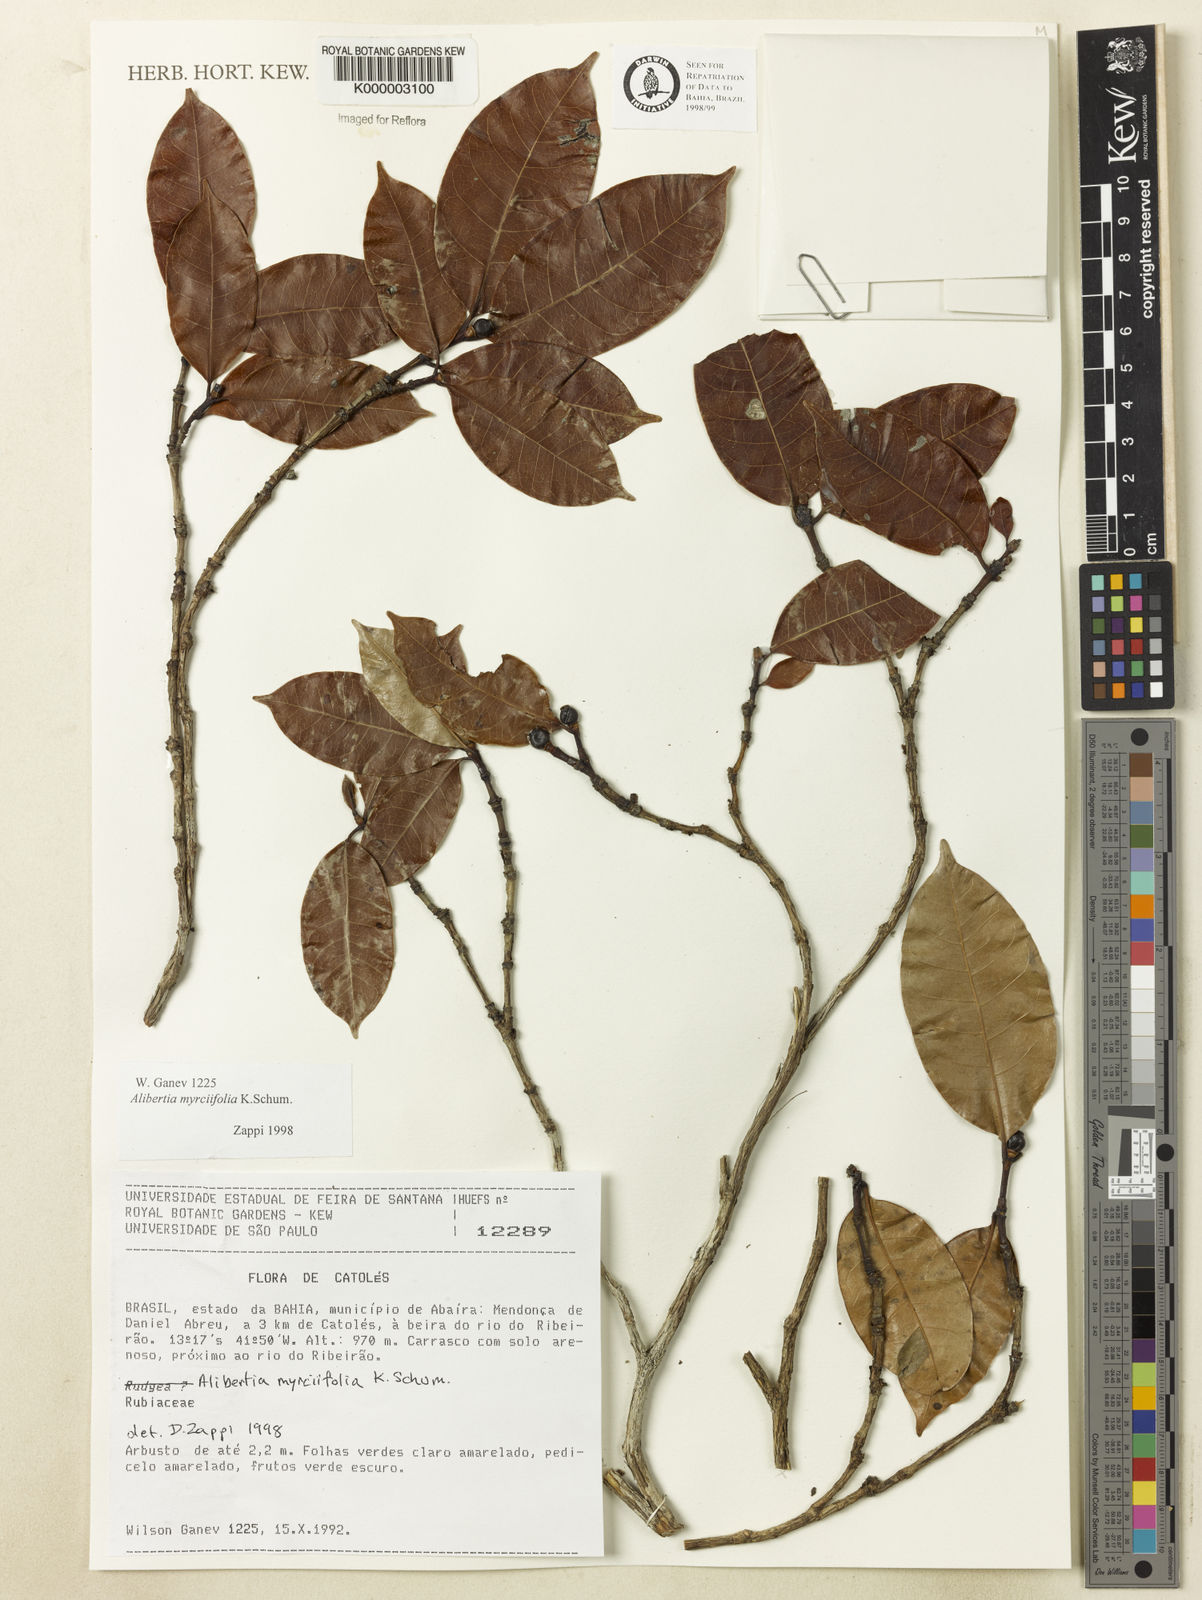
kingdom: Plantae
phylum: Tracheophyta
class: Magnoliopsida
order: Gentianales
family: Rubiaceae
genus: Cordiera
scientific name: Cordiera myrciifolia
